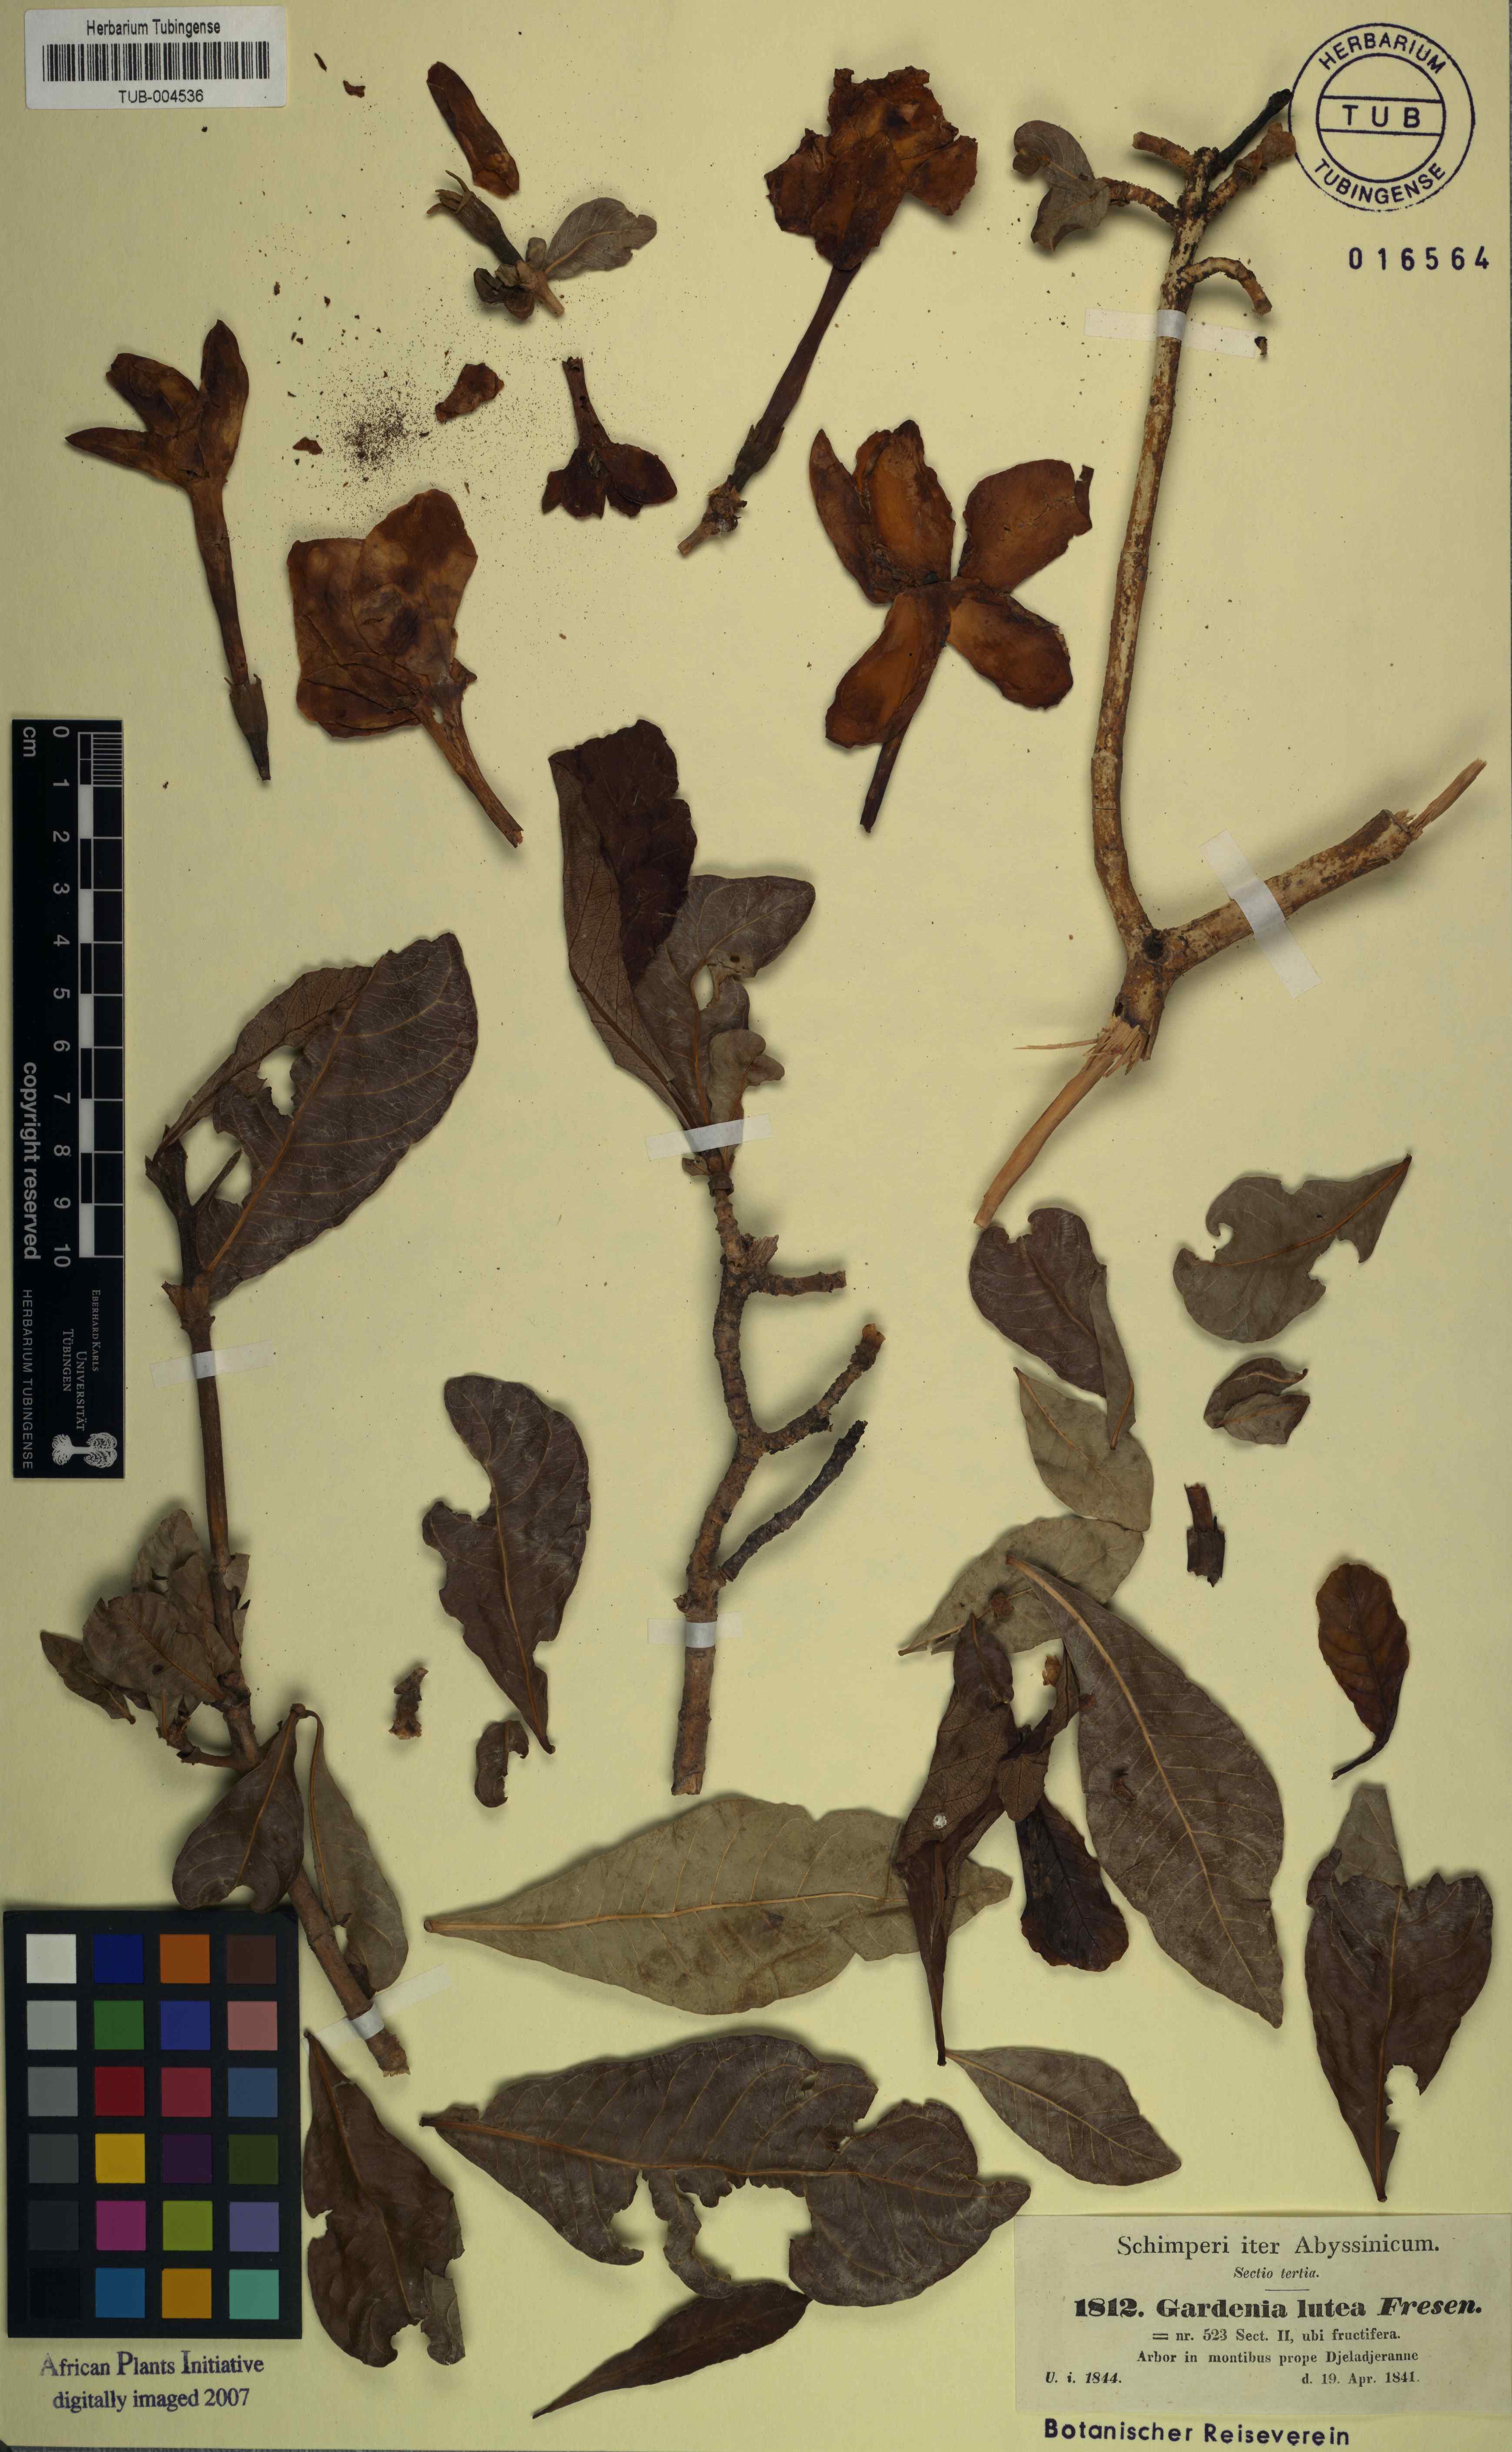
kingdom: Plantae
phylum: Tracheophyta
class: Magnoliopsida
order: Gentianales
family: Rubiaceae
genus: Gardenia
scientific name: Gardenia ternifolia
